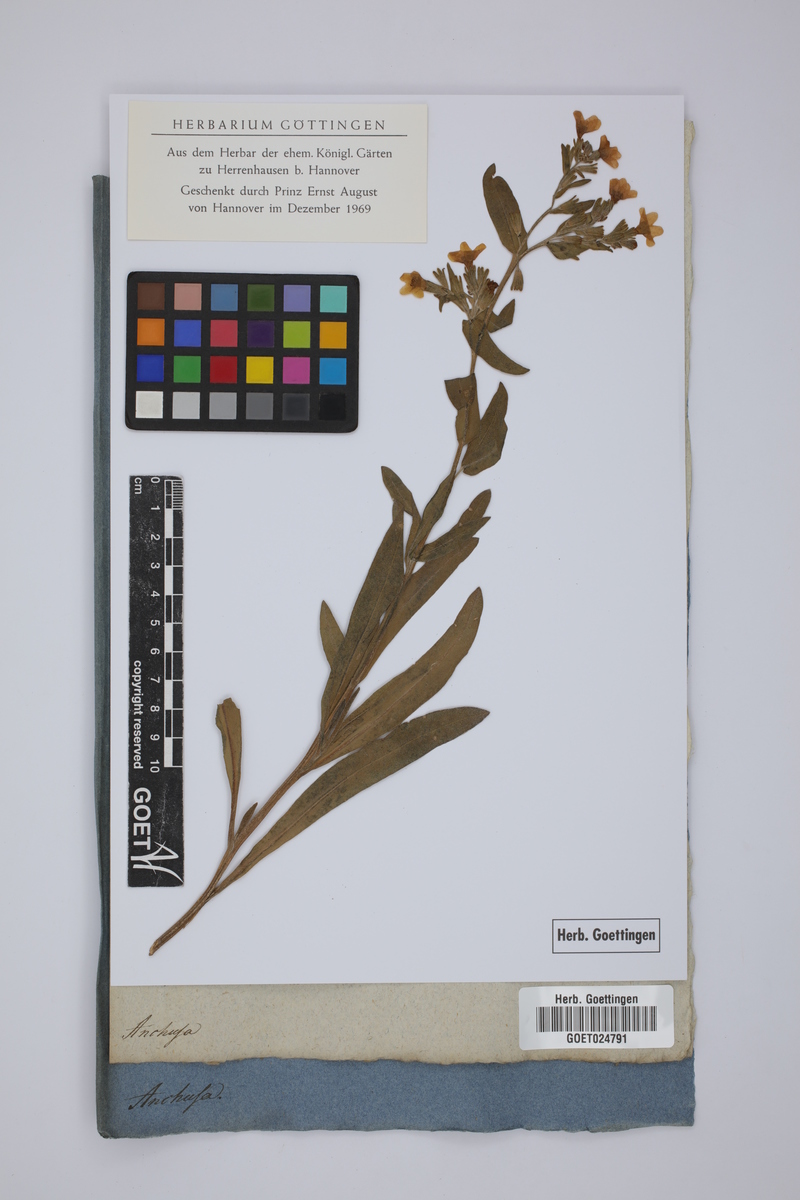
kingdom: Plantae
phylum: Tracheophyta
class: Magnoliopsida
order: Boraginales
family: Boraginaceae
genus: Anchusa
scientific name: Anchusa
